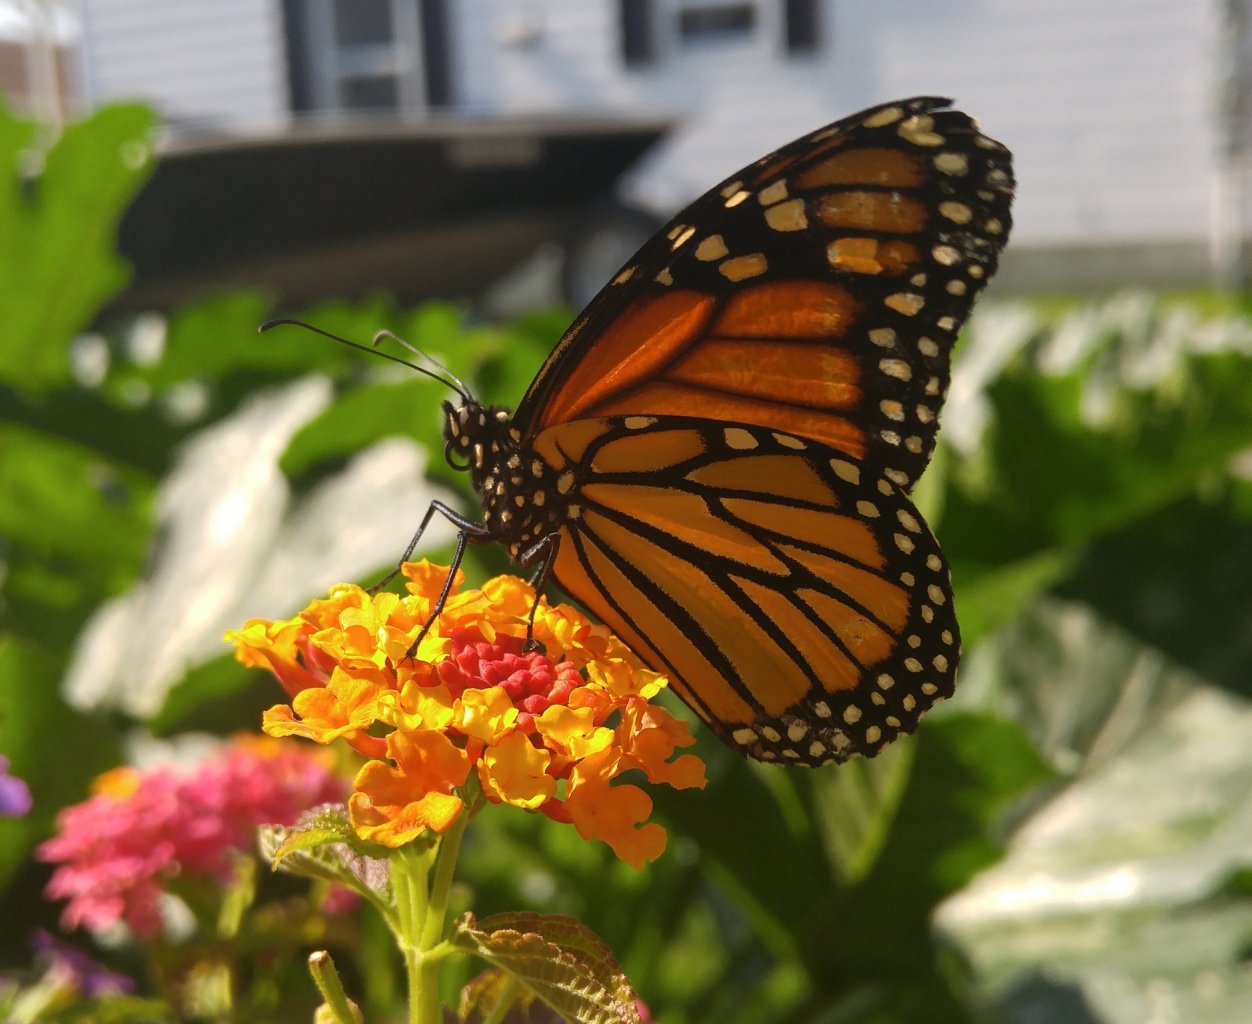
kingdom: Animalia
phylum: Arthropoda
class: Insecta
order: Lepidoptera
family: Nymphalidae
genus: Danaus
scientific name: Danaus plexippus
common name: Monarch
